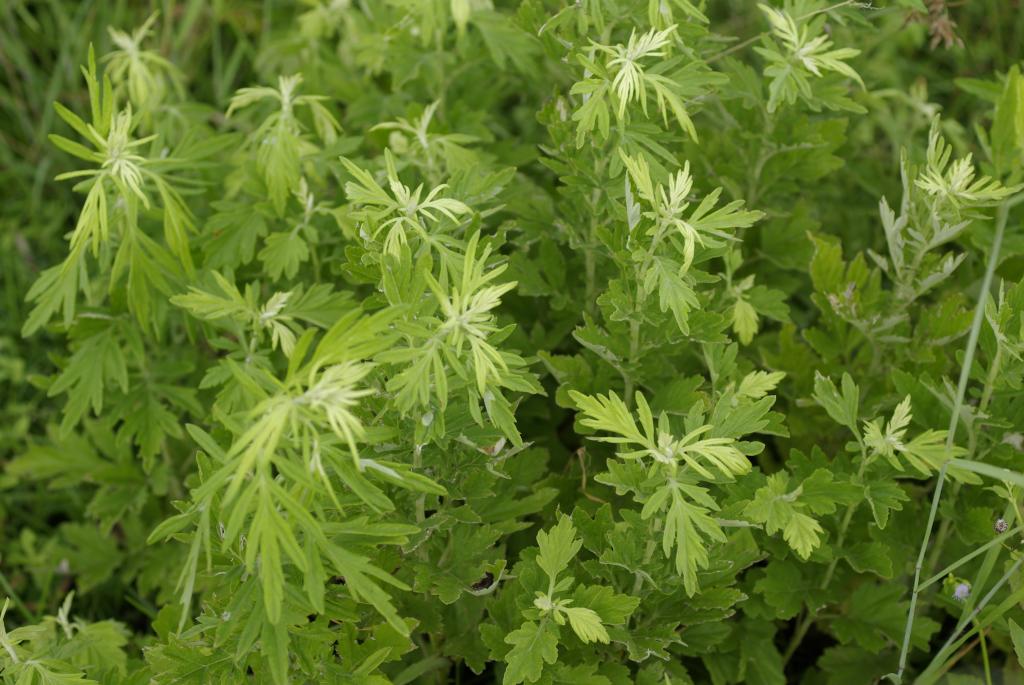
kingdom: Plantae
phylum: Tracheophyta
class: Magnoliopsida
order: Asterales
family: Asteraceae
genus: Artemisia
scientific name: Artemisia indica
